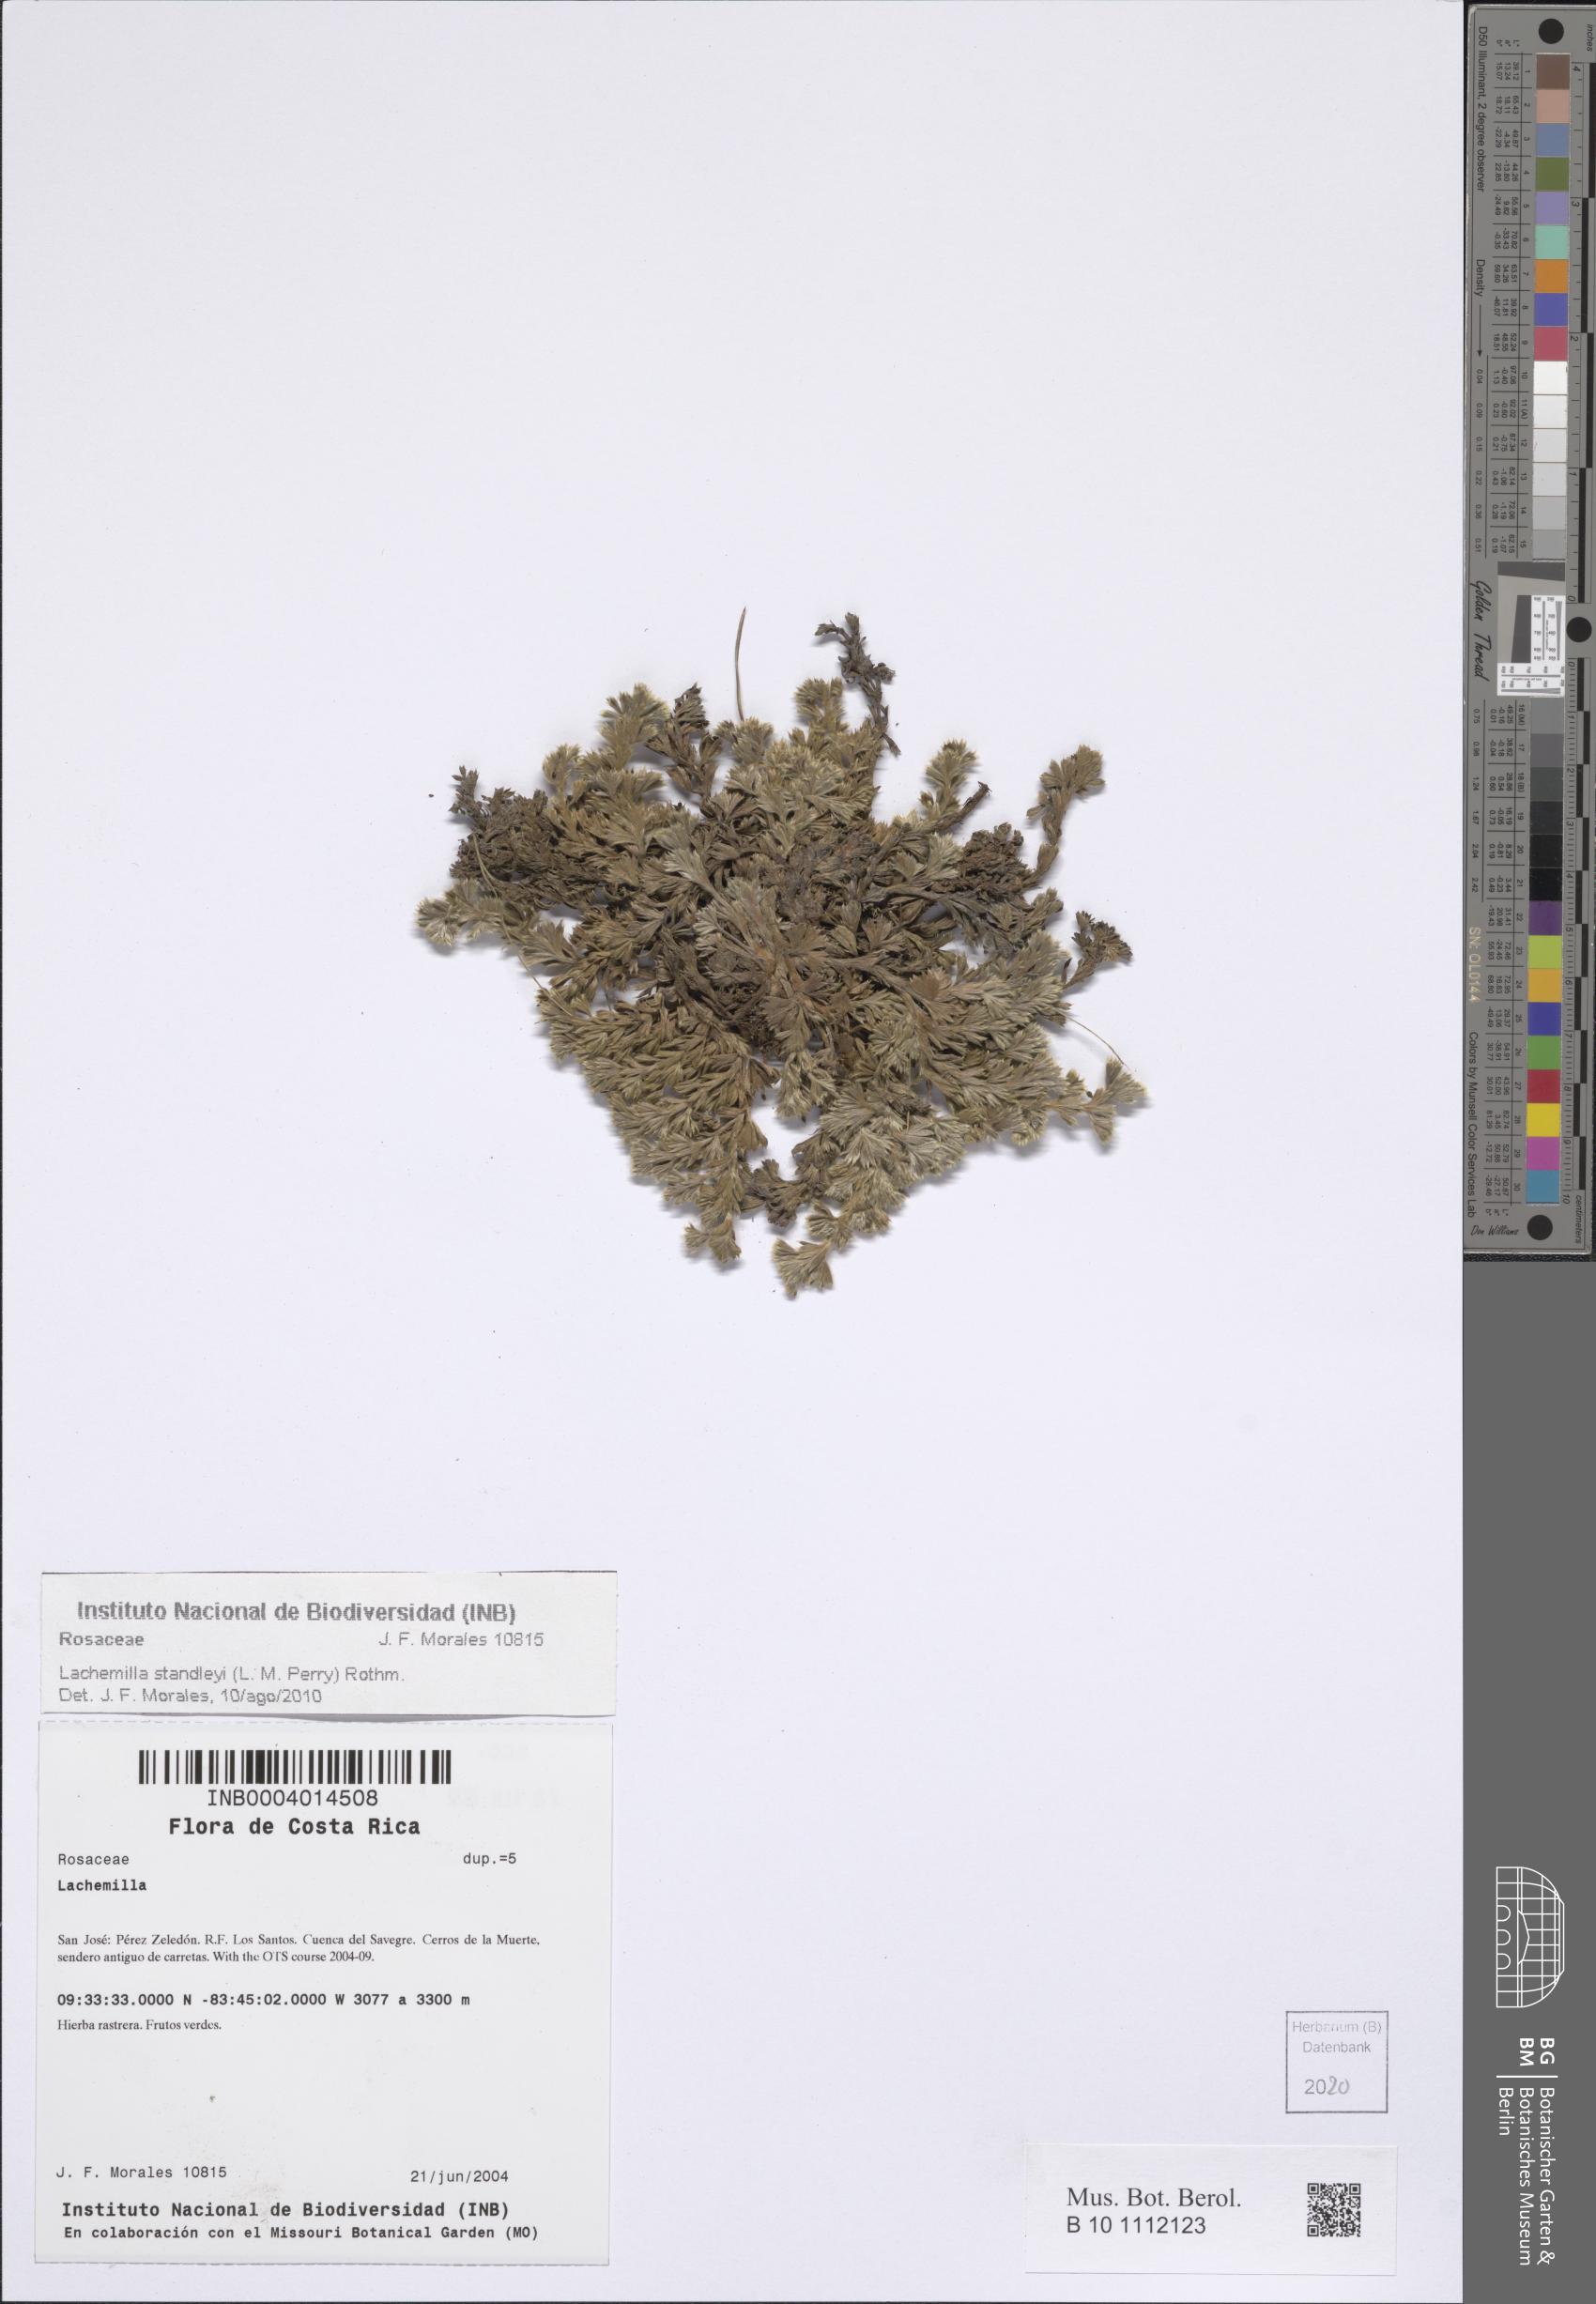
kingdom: Plantae
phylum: Tracheophyta
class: Magnoliopsida
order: Rosales
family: Rosaceae
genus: Lachemilla
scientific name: Lachemilla standleyi
